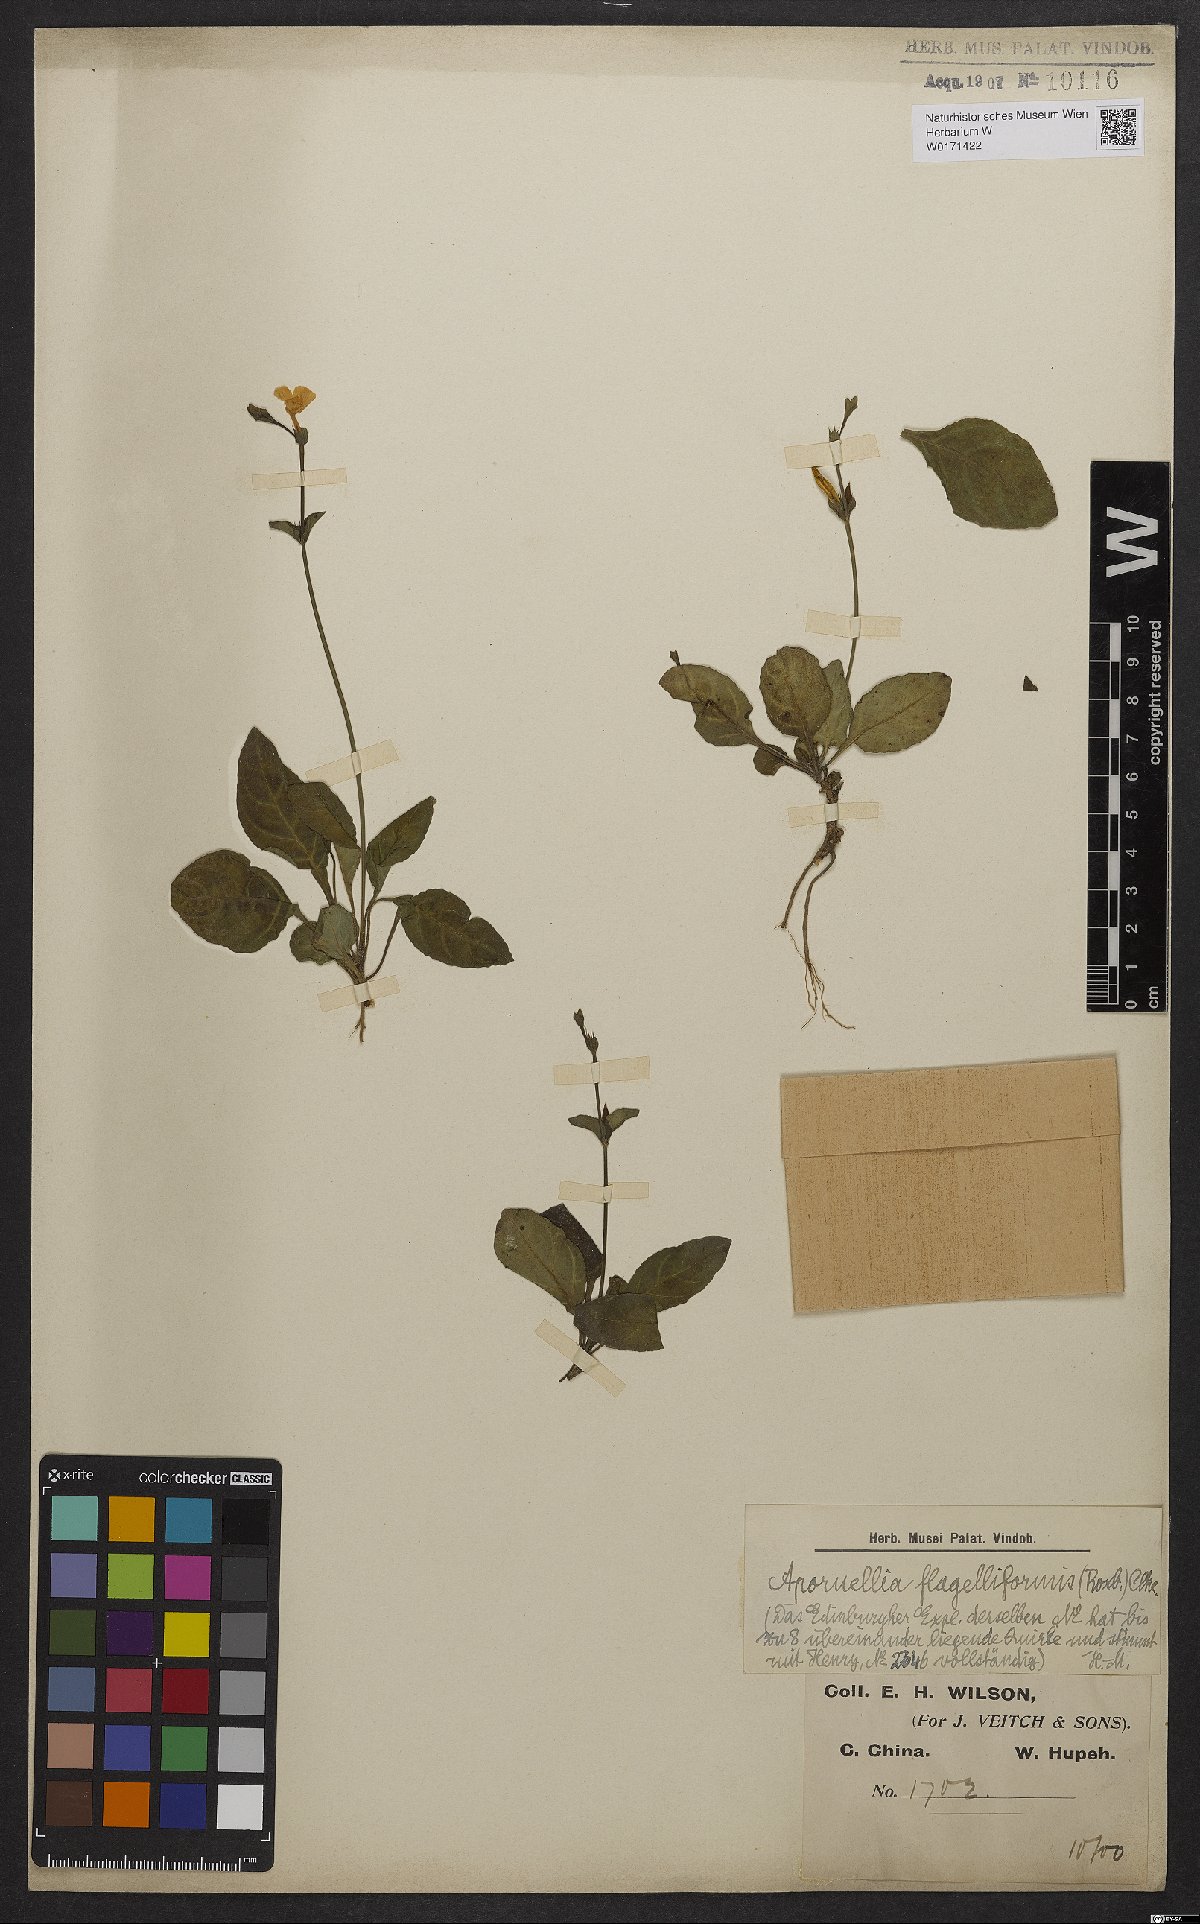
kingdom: Plantae
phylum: Tracheophyta
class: Magnoliopsida
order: Lamiales
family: Acanthaceae
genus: Pararuellia
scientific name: Pararuellia flagelliformis
